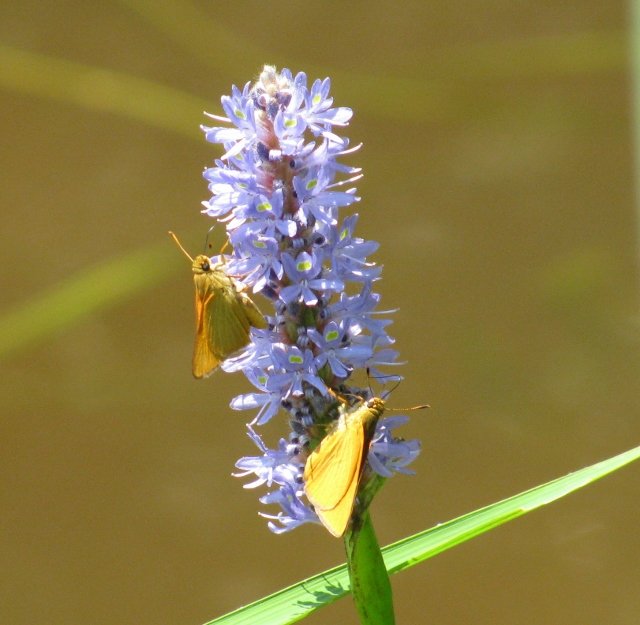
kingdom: Animalia
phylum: Arthropoda
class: Insecta
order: Lepidoptera
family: Hesperiidae
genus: Problema
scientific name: Problema bulenta
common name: Rare Skipper
